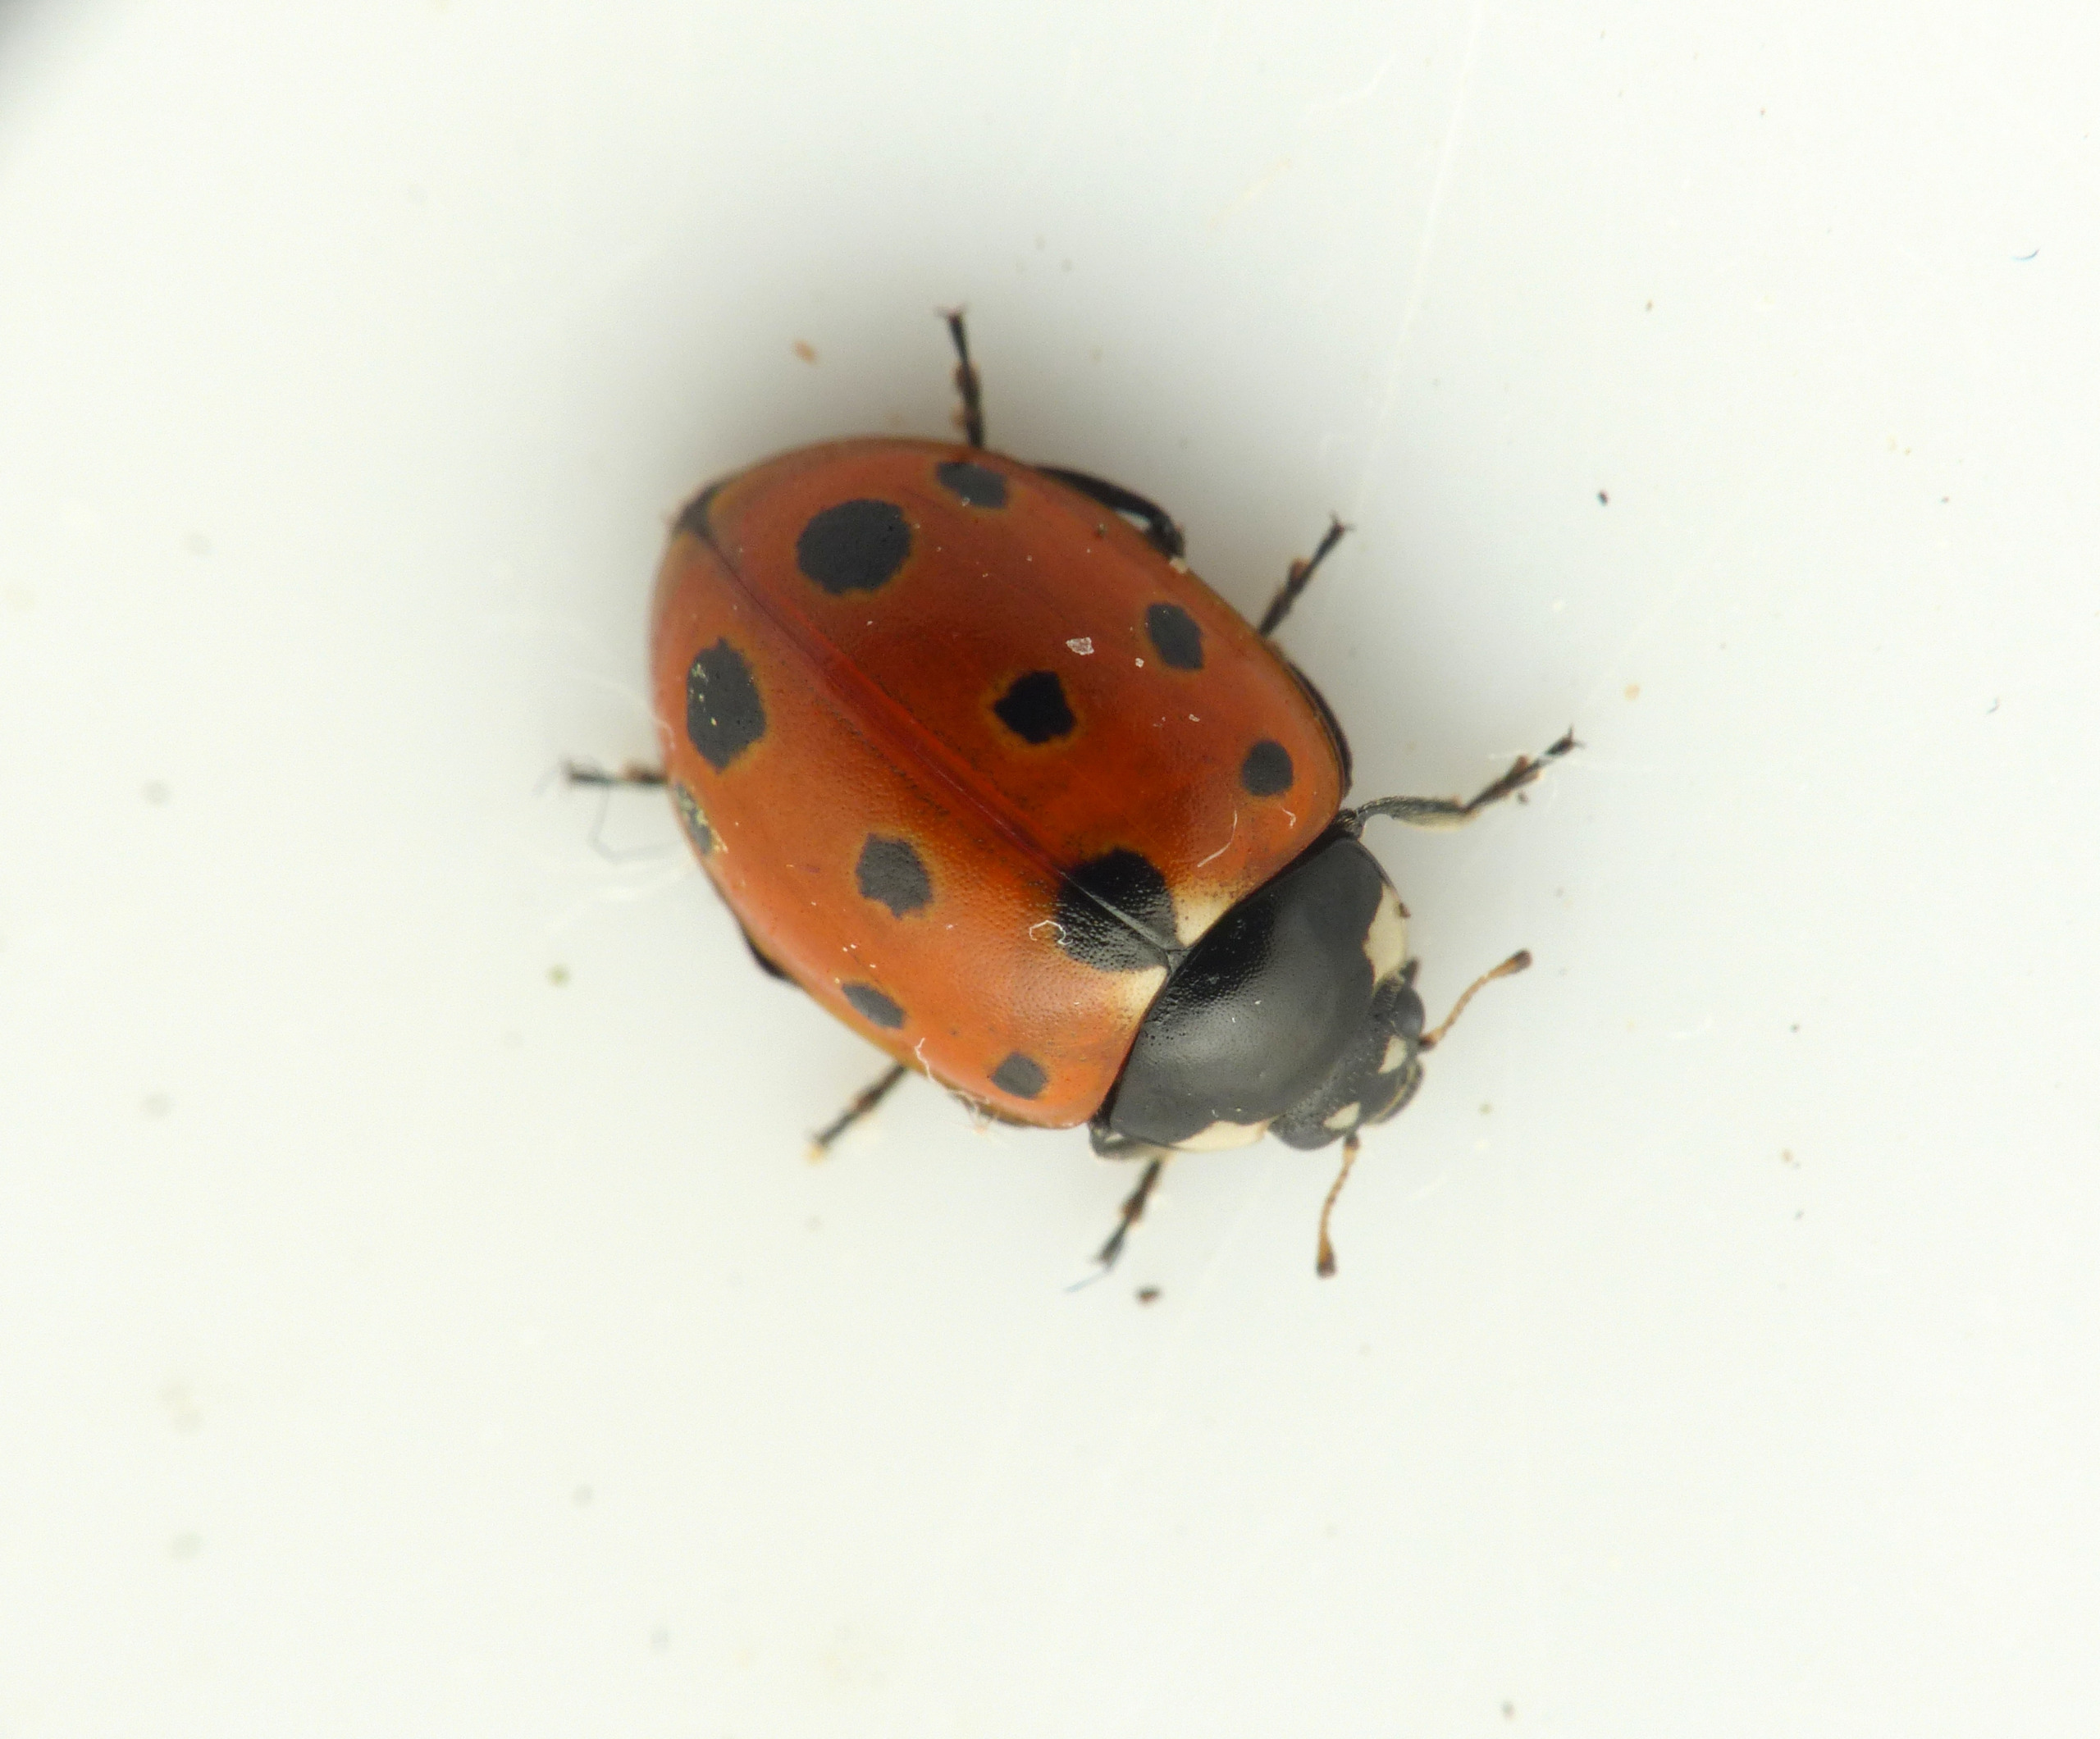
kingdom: Animalia
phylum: Arthropoda
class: Insecta
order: Coleoptera
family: Coccinellidae
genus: Coccinella
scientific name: Coccinella undecimpunctata
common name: Elleveplettet mariehøne
